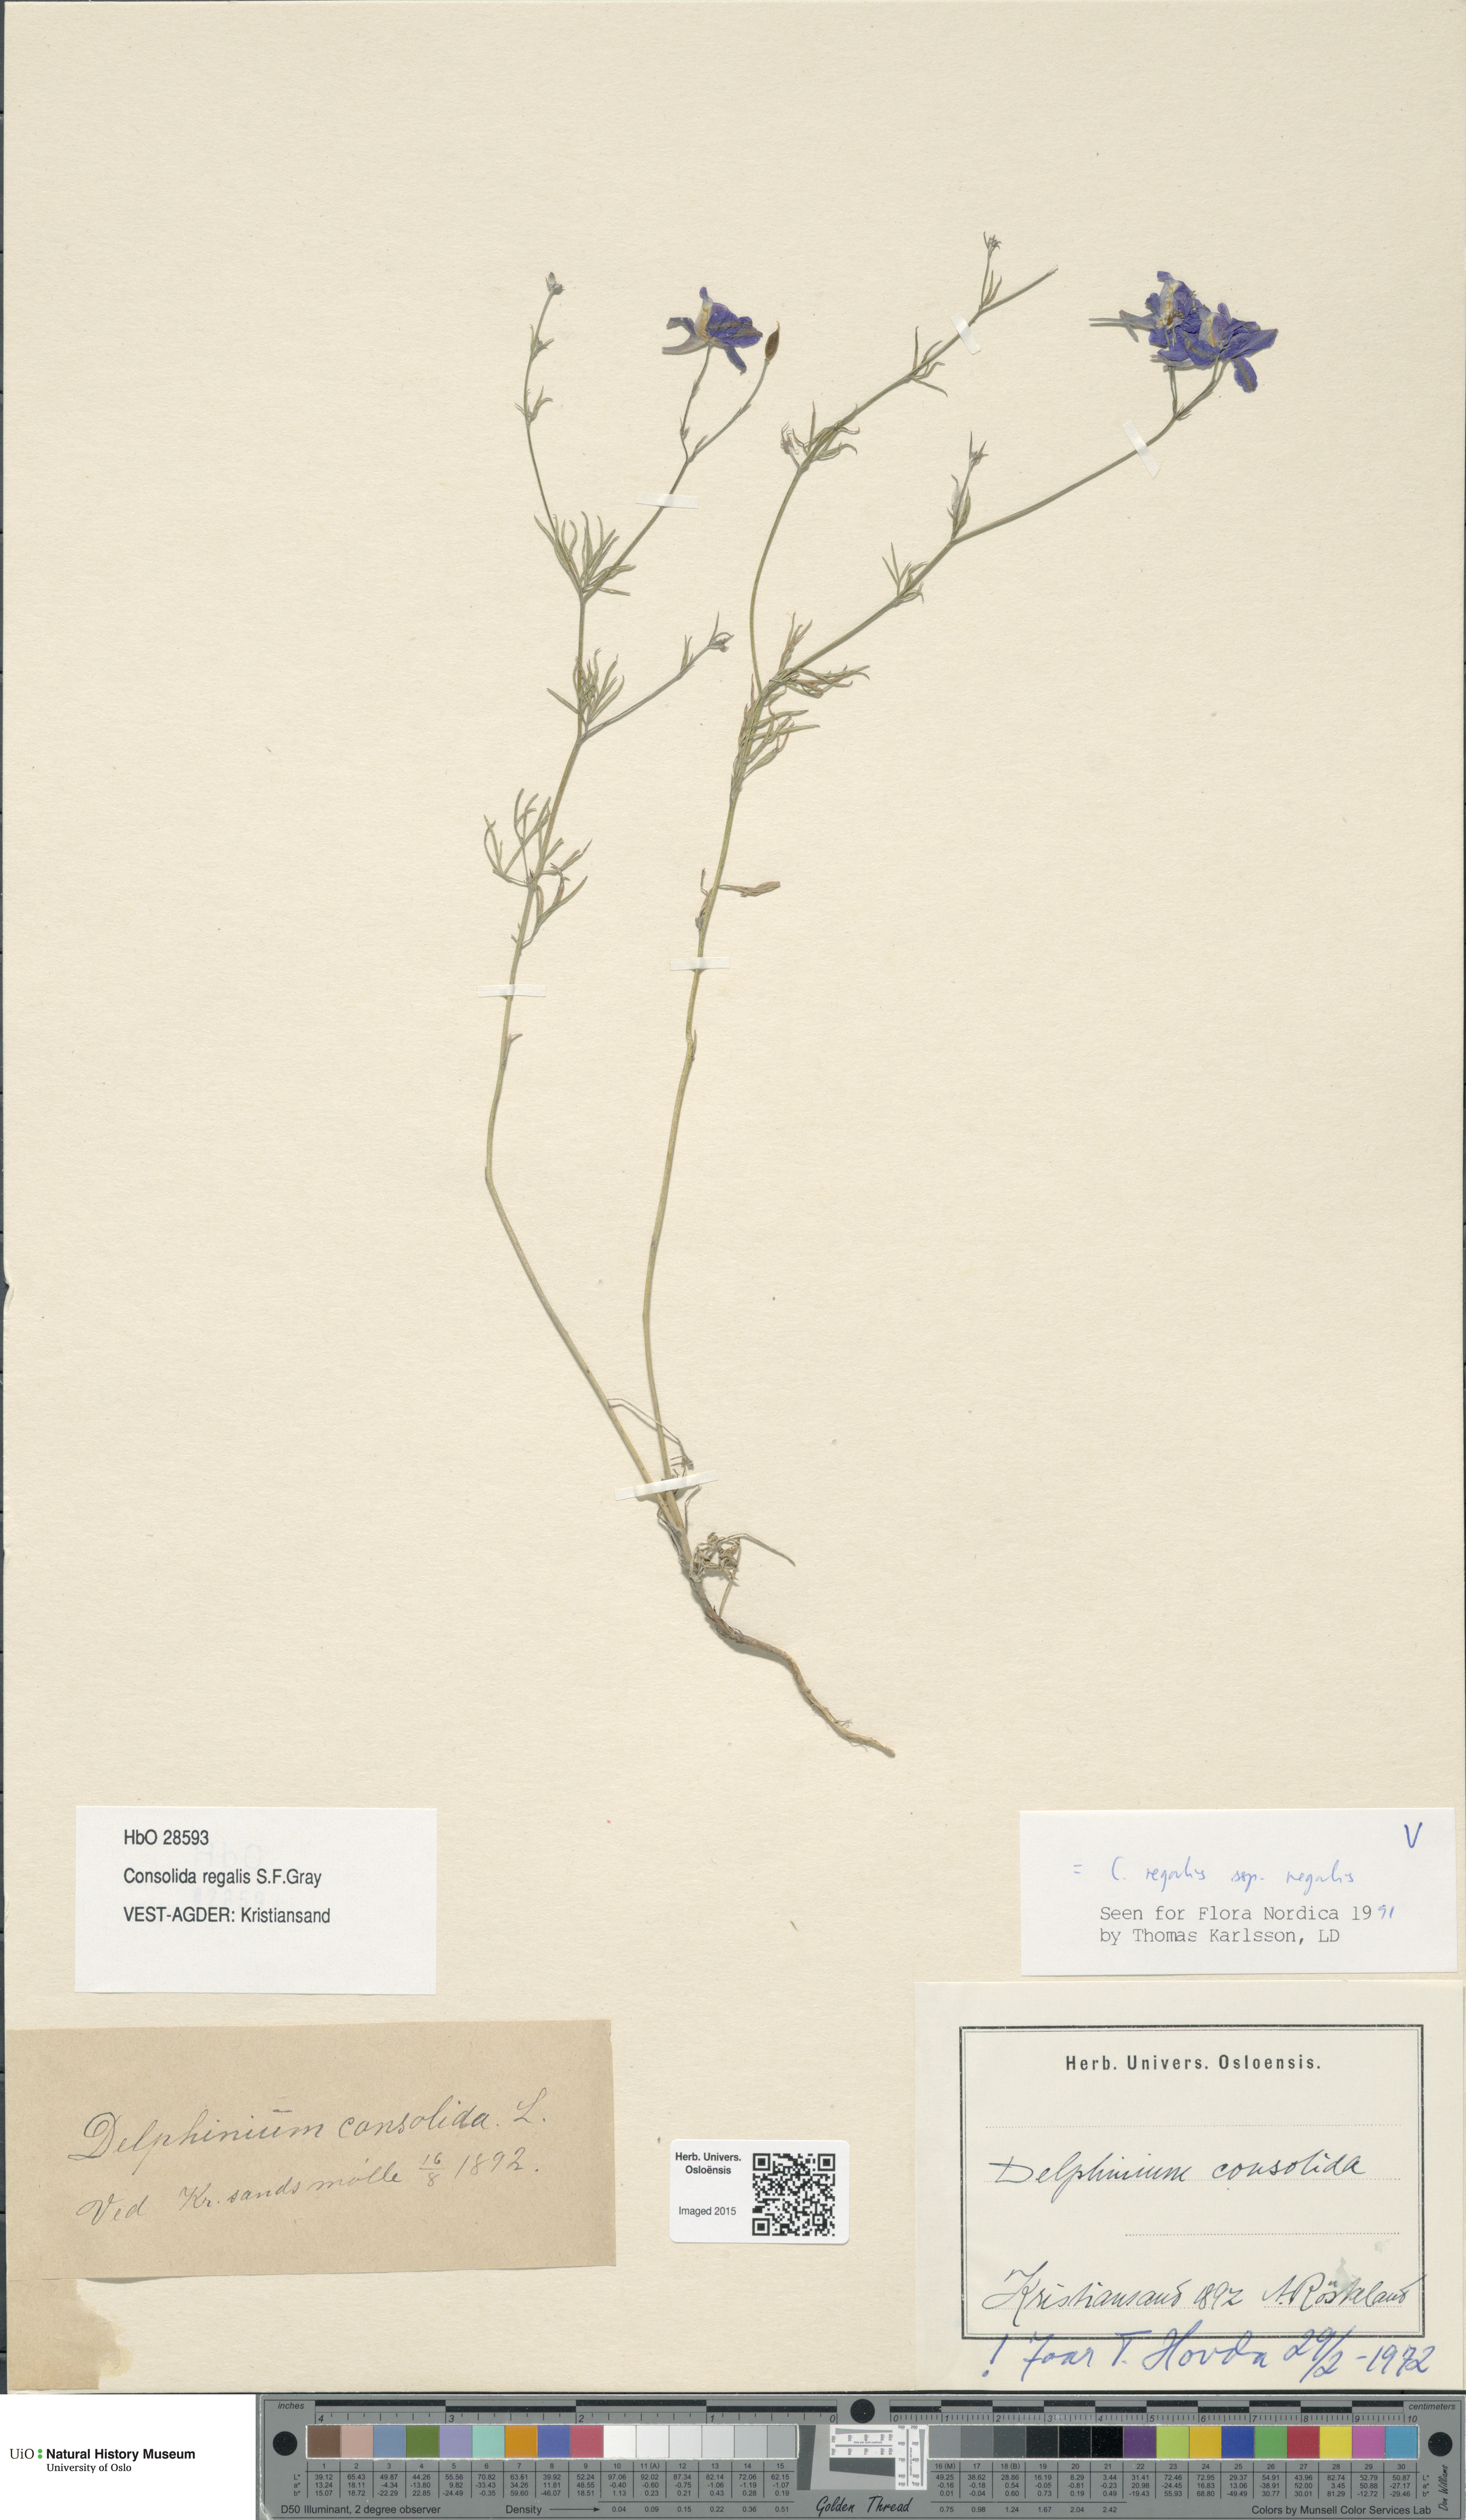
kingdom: Plantae
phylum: Tracheophyta
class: Magnoliopsida
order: Ranunculales
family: Ranunculaceae
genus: Delphinium
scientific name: Delphinium consolida
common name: Branching larkspur
